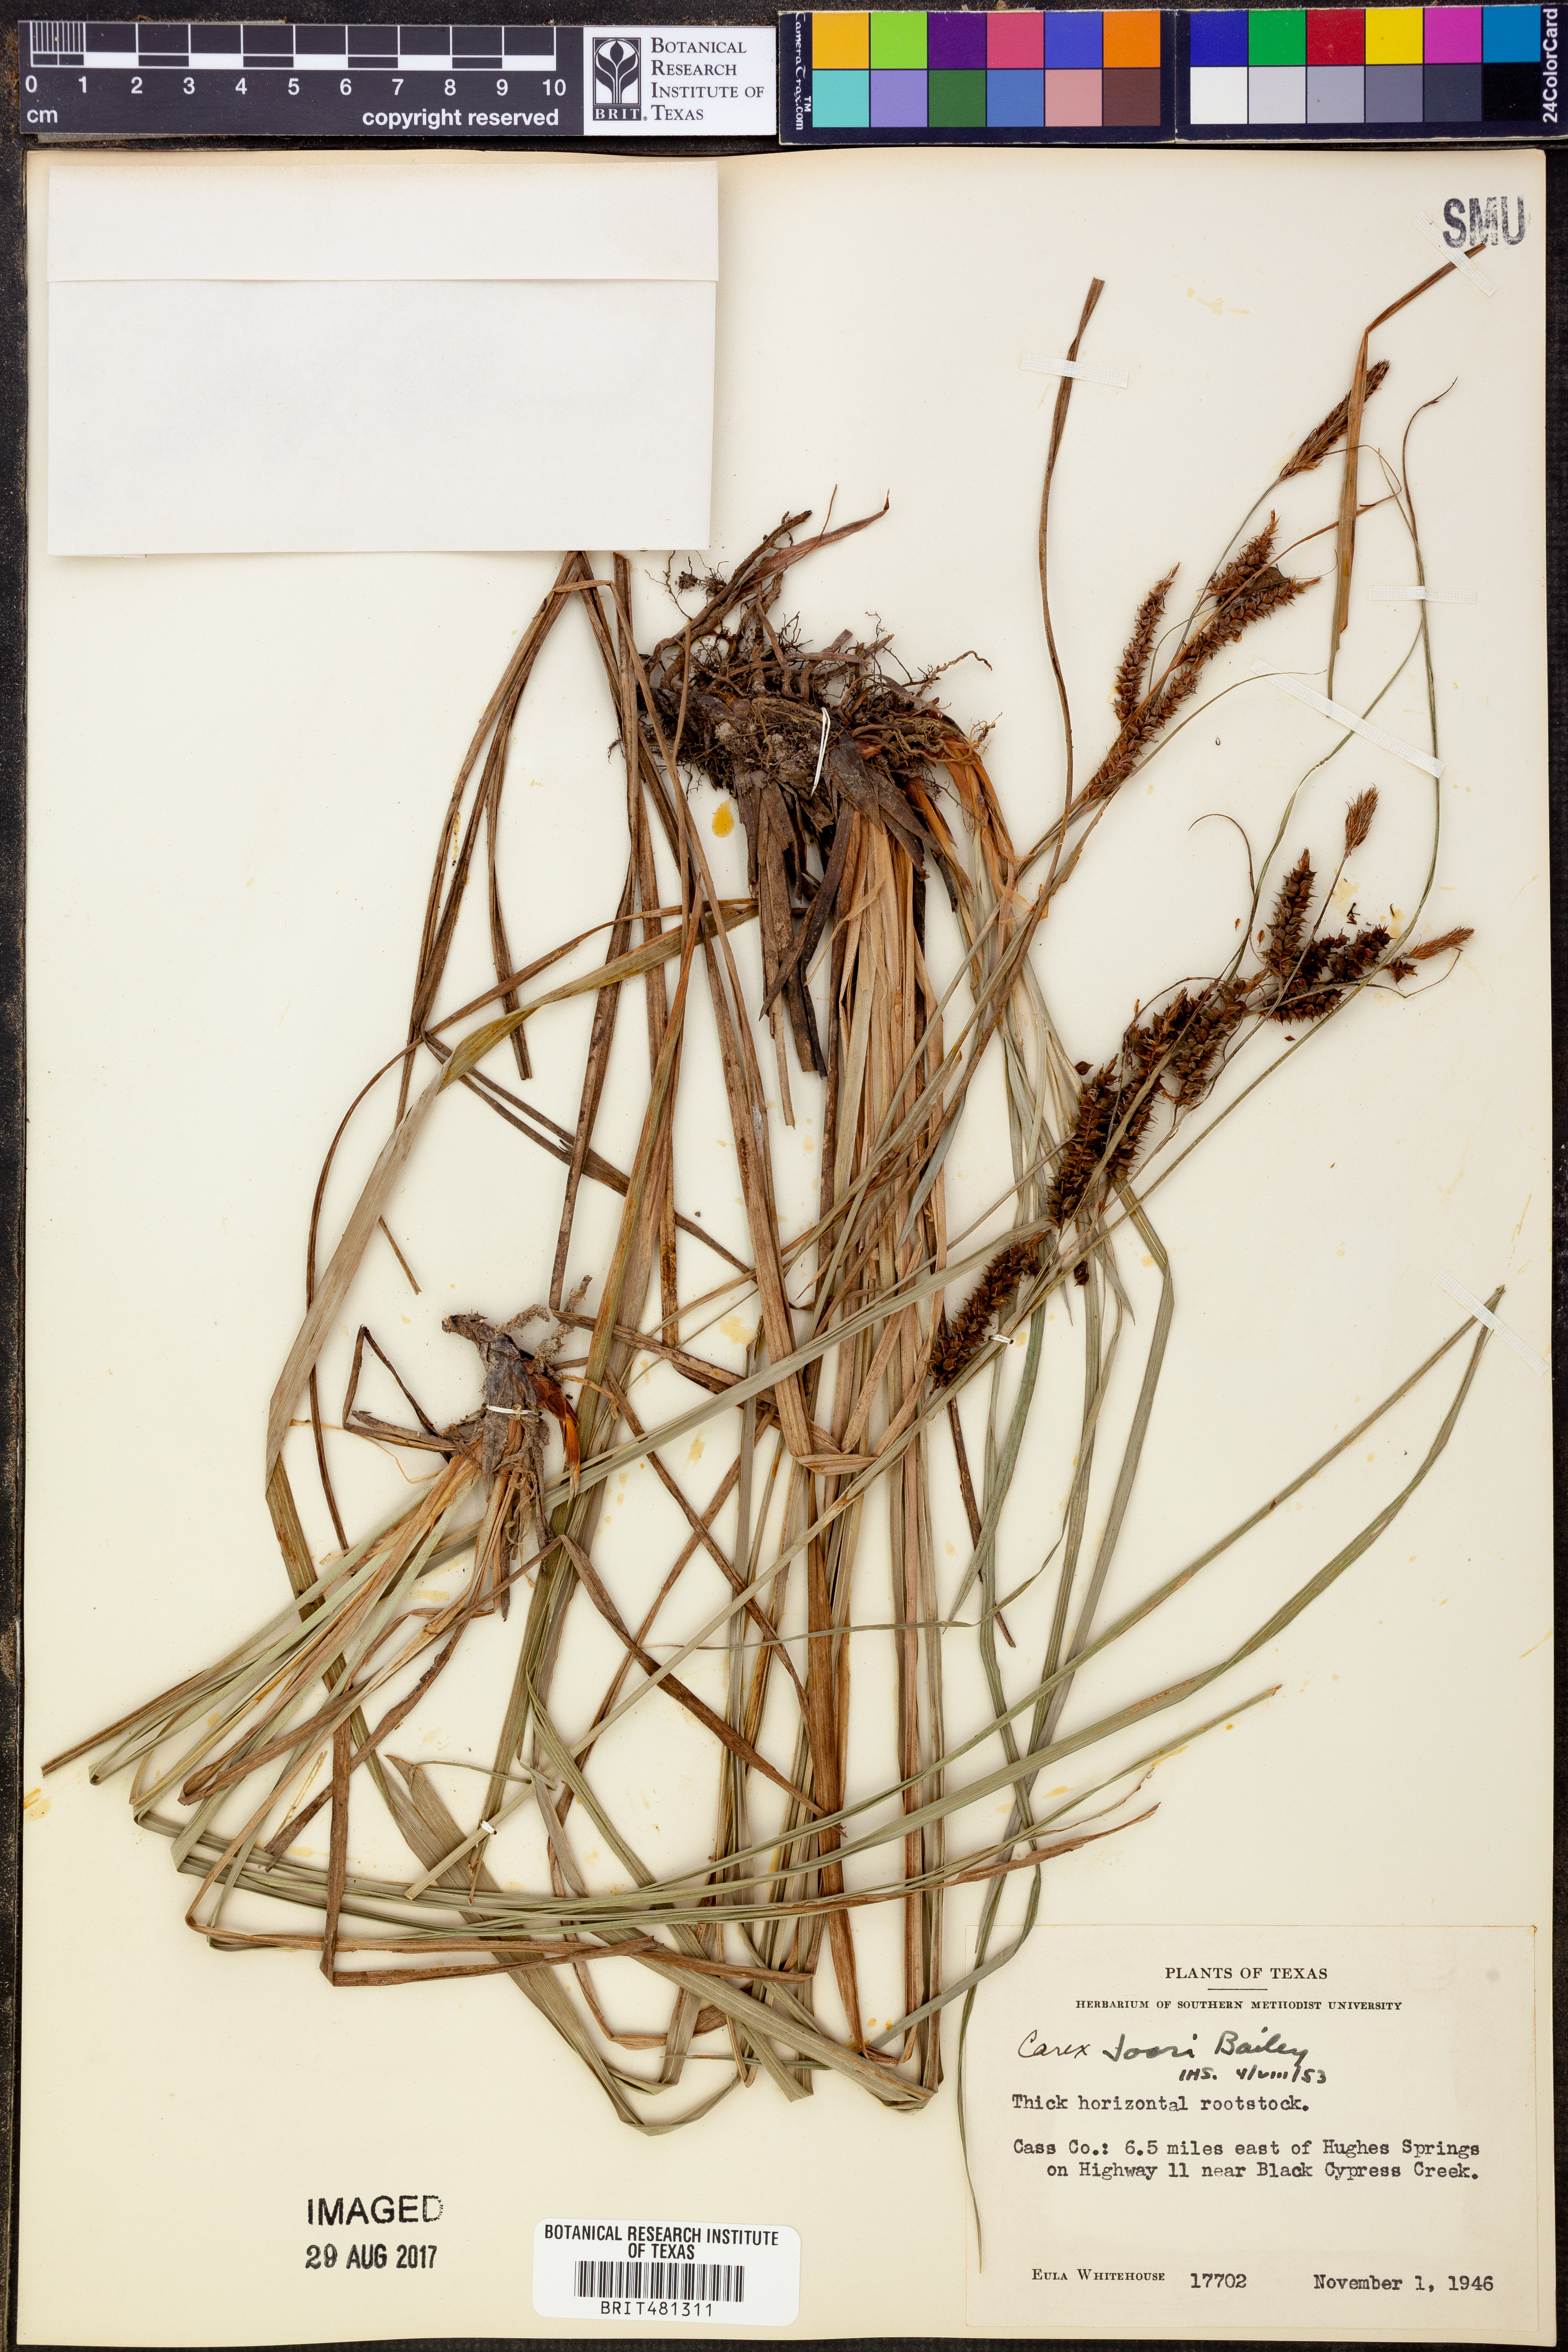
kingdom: Plantae
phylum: Tracheophyta
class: Liliopsida
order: Poales
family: Cyperaceae
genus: Carex
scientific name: Carex joorii
